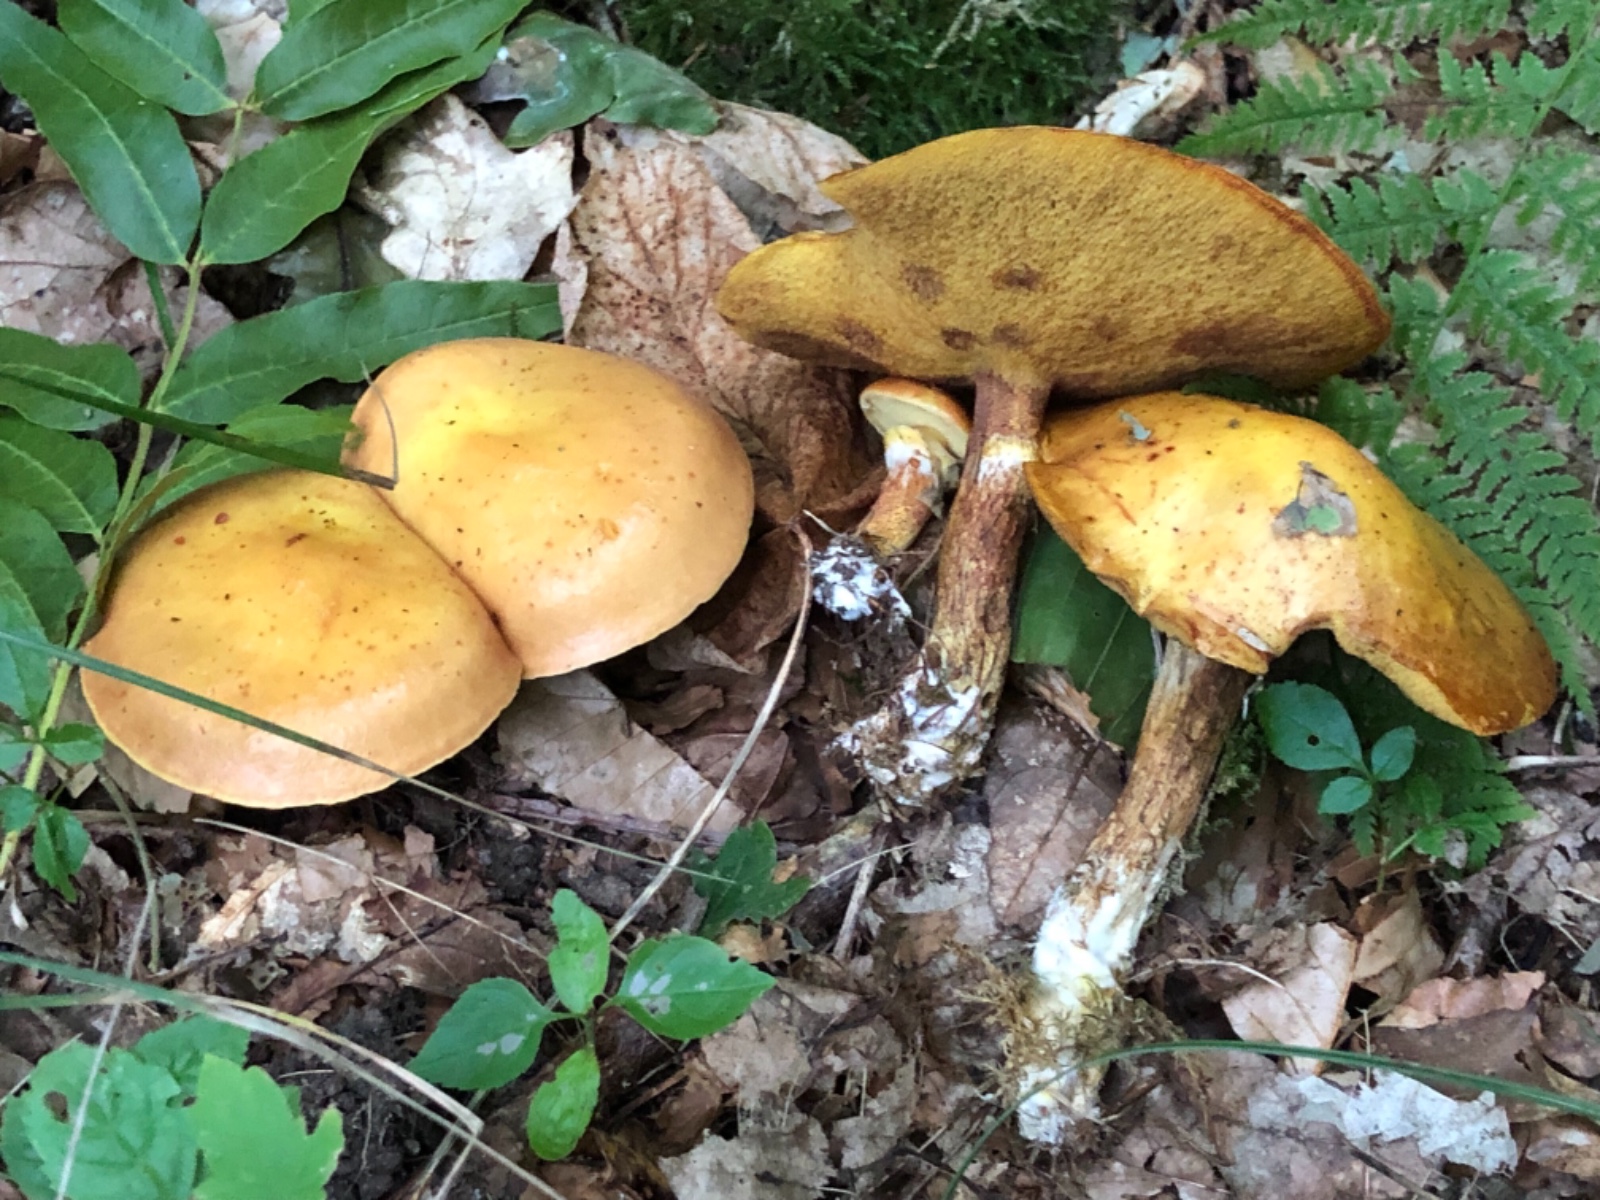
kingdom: Fungi
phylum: Basidiomycota
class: Agaricomycetes
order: Boletales
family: Suillaceae
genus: Suillus
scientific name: Suillus grevillei
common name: lærke-slimrørhat
